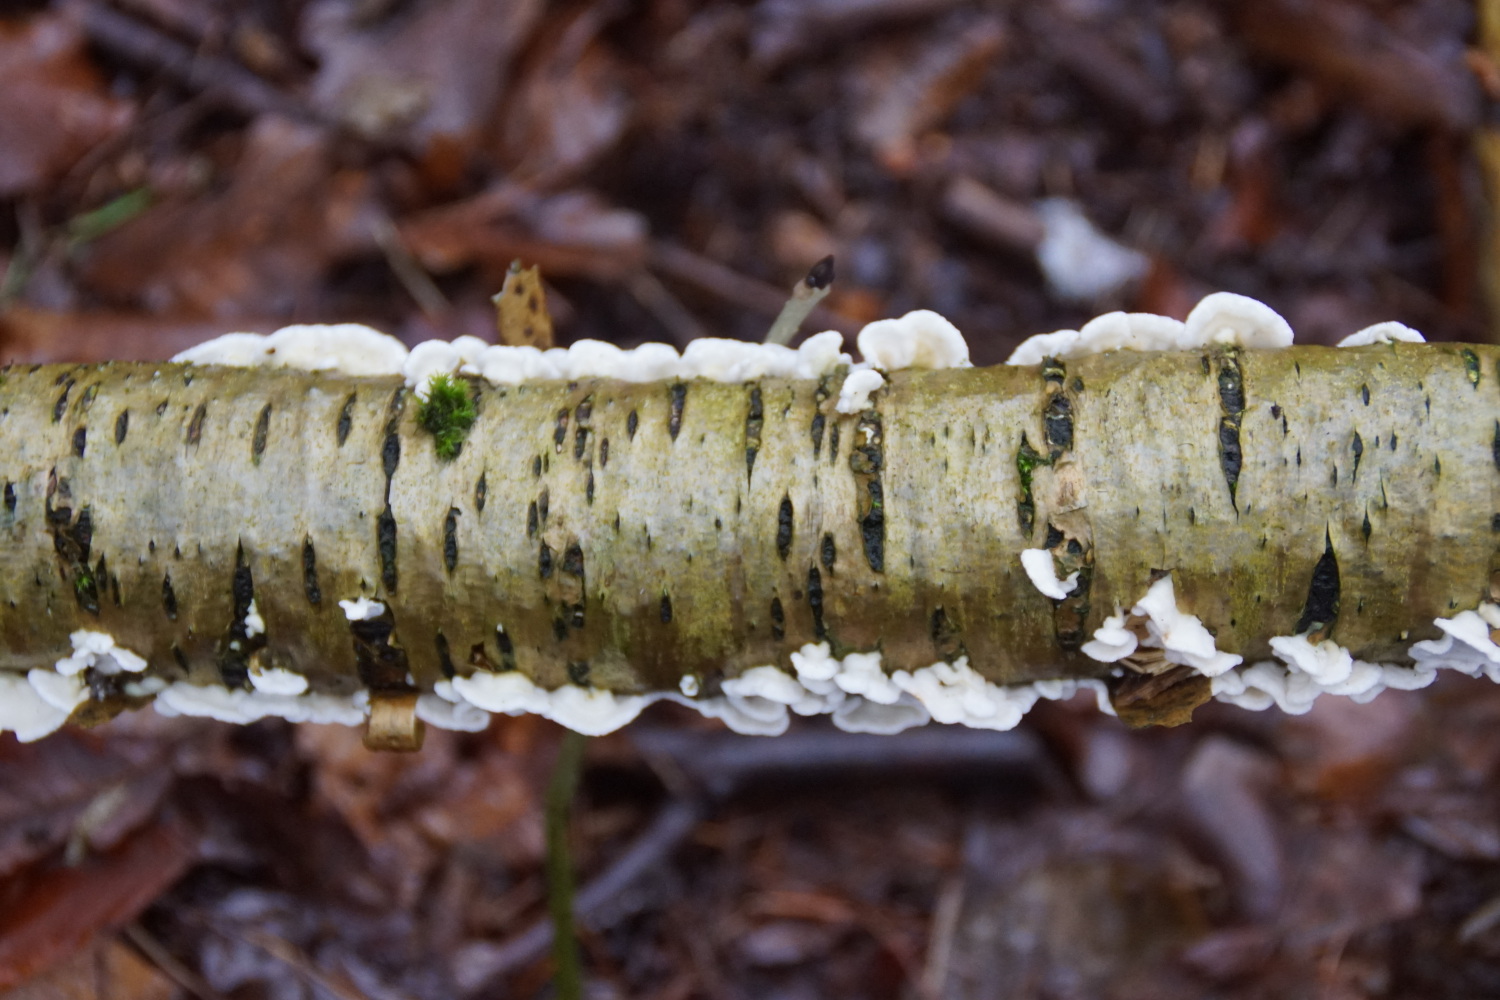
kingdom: Fungi
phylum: Basidiomycota
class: Agaricomycetes
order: Polyporales
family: Irpicaceae
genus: Byssomerulius
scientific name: Byssomerulius corium
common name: læder-åresvamp
